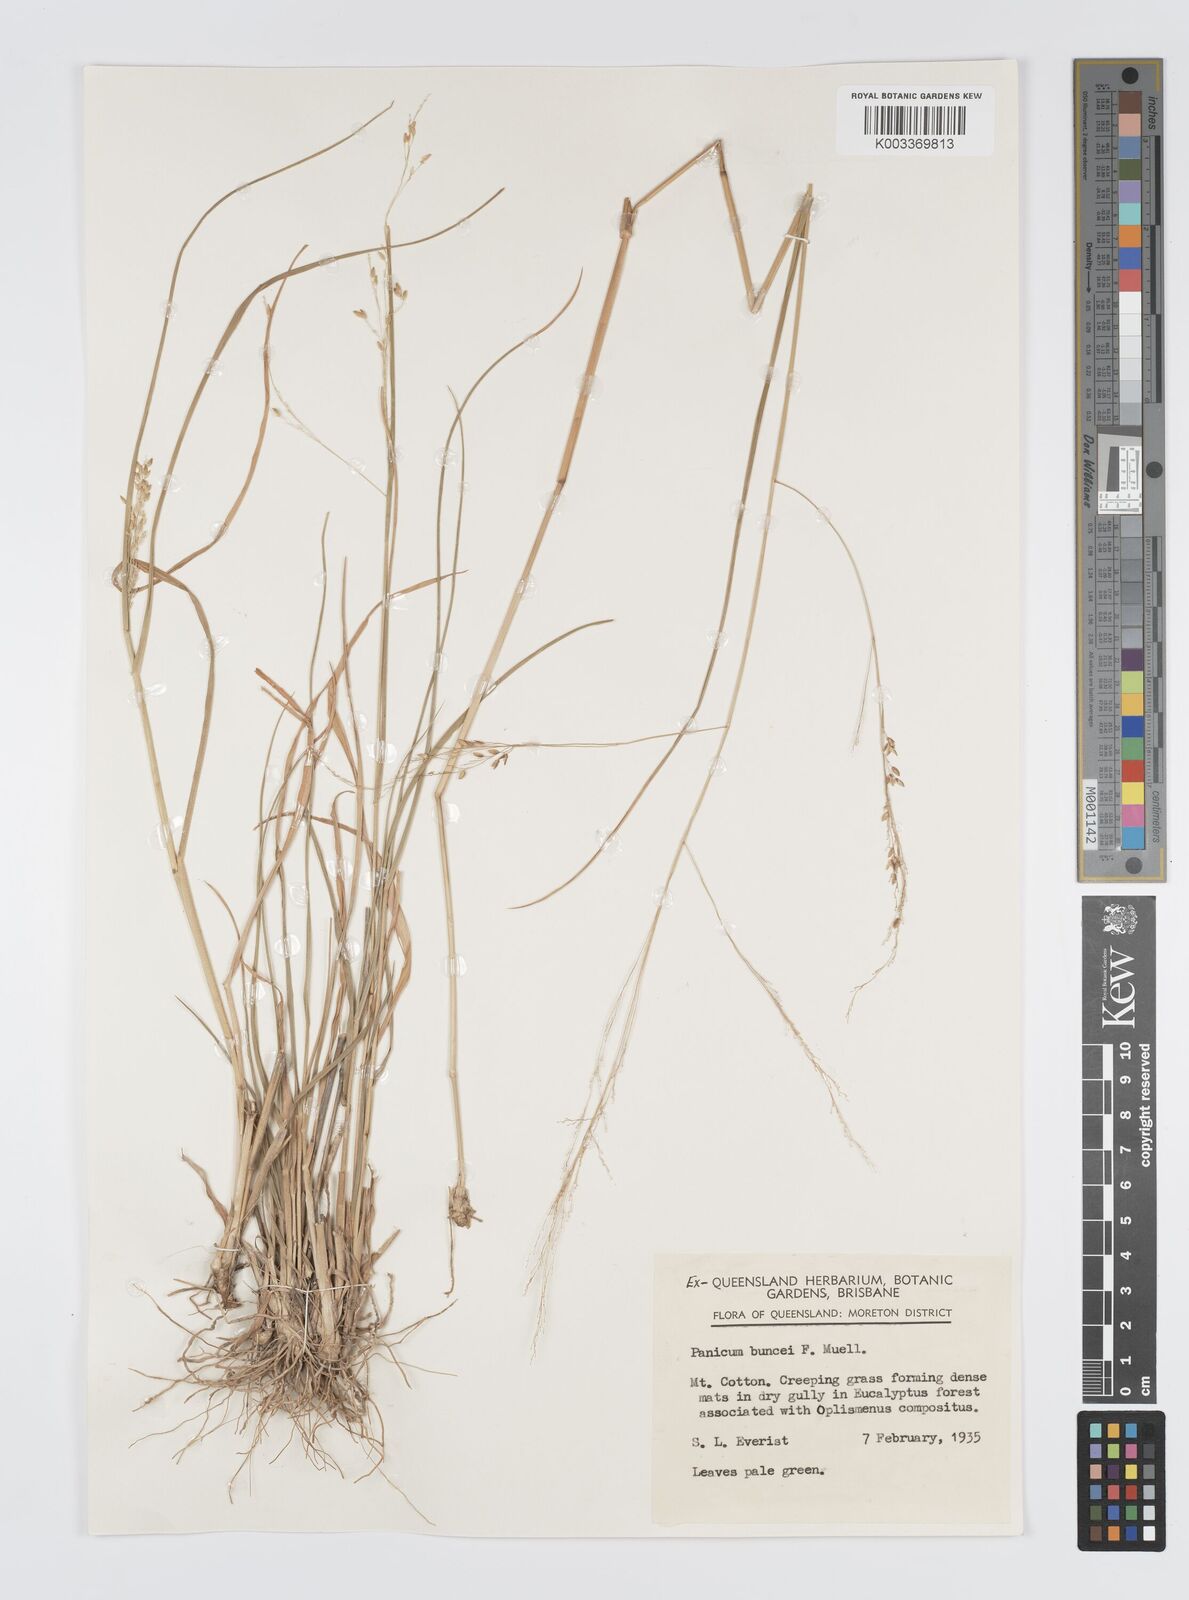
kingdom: Plantae
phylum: Tracheophyta
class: Liliopsida
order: Poales
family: Poaceae
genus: Panicum
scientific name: Panicum buncei
